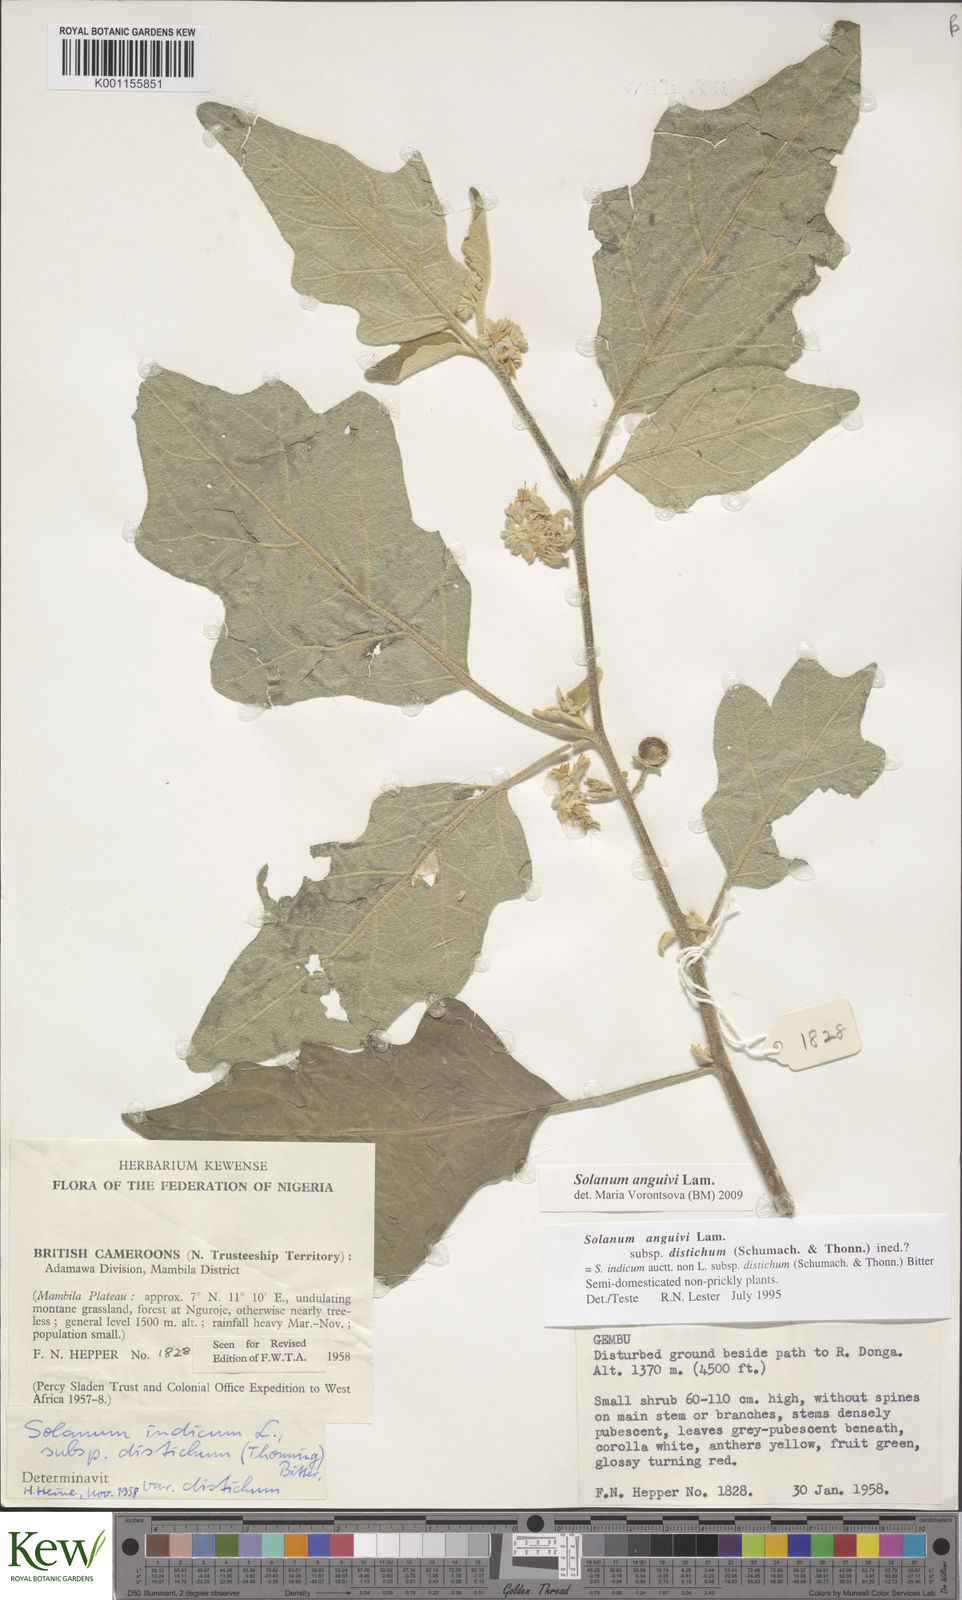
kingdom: Plantae
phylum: Tracheophyta
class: Magnoliopsida
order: Solanales
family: Solanaceae
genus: Solanum
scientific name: Solanum anguivi
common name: Forest bitterberry
